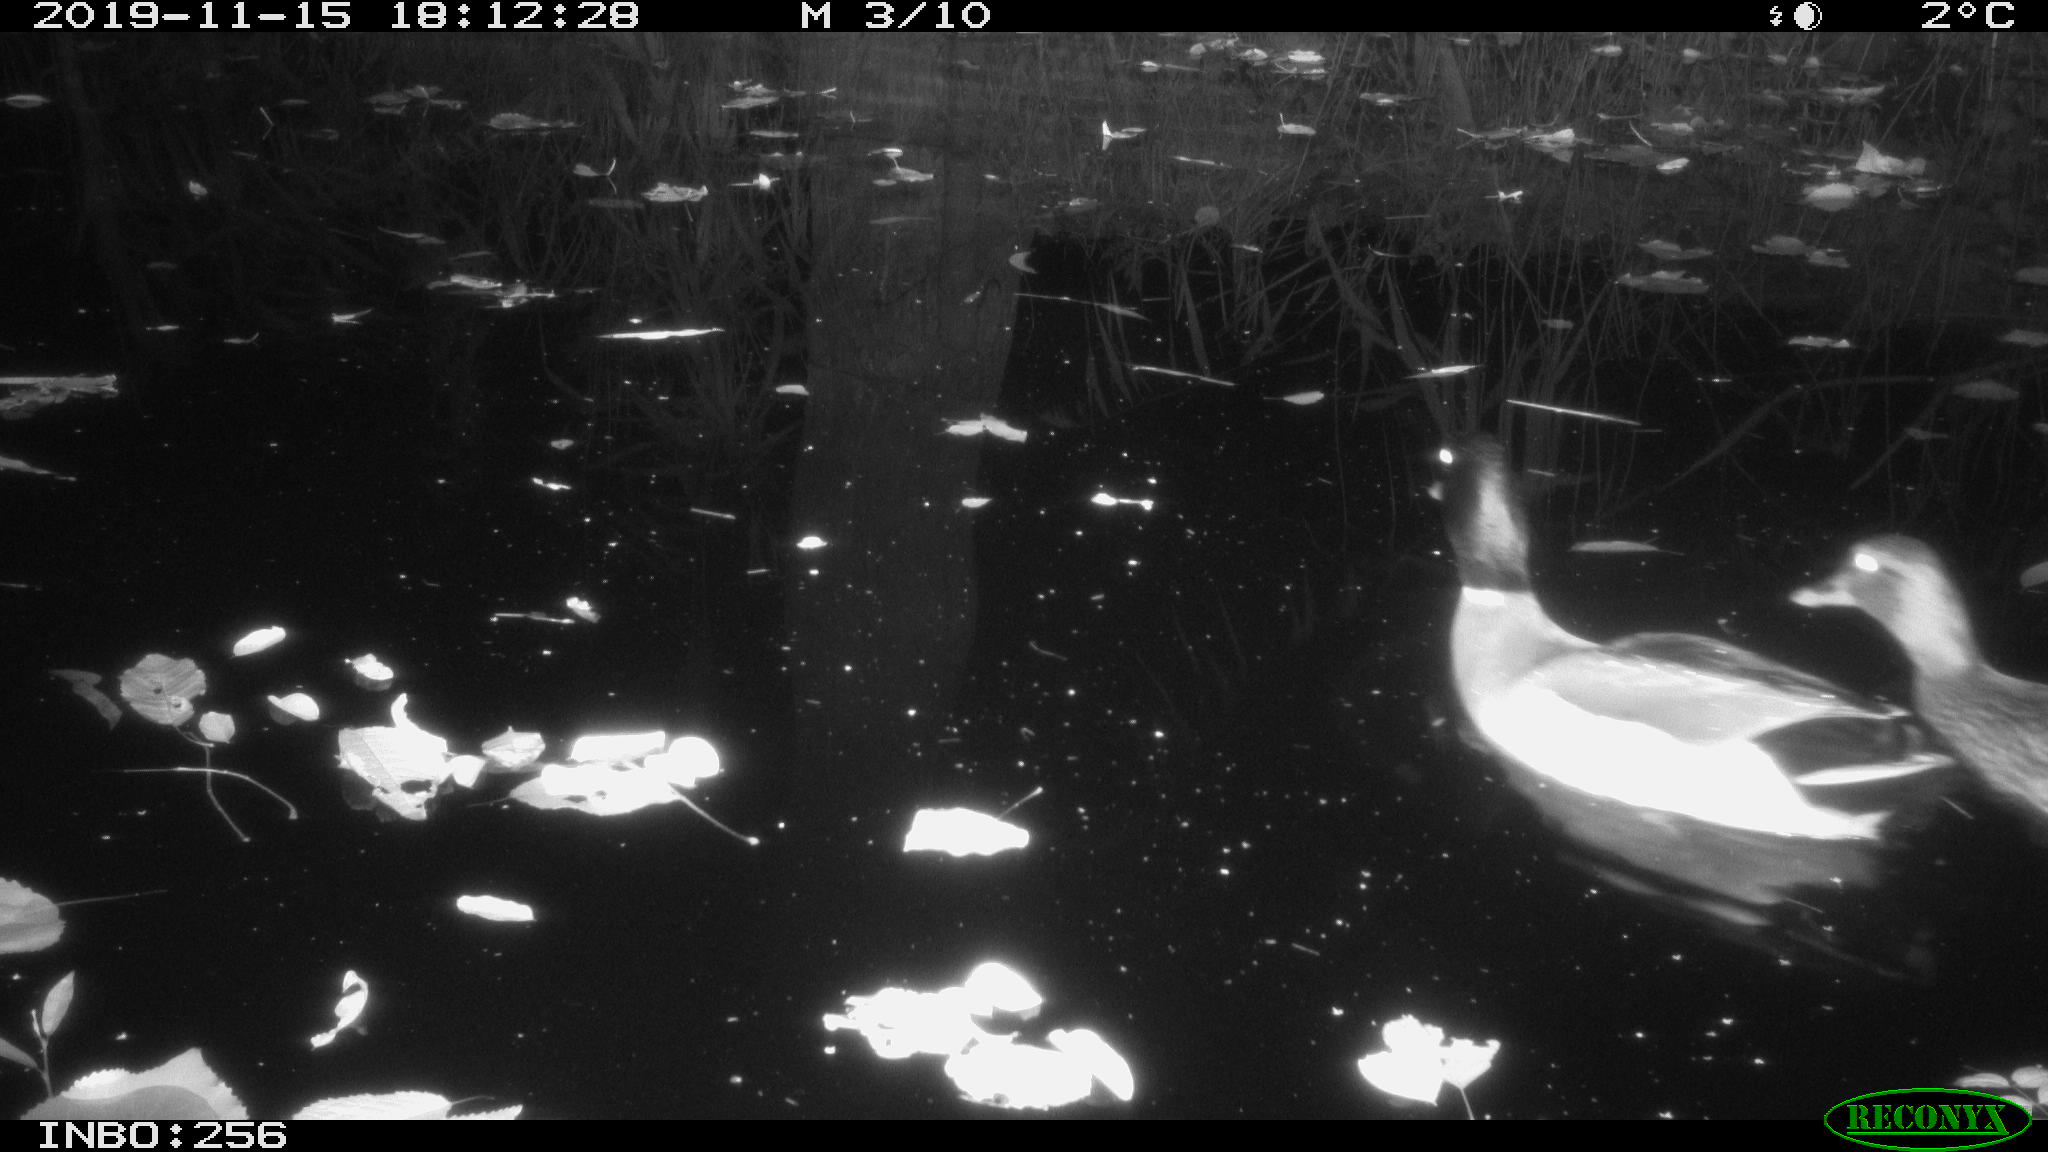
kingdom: Animalia
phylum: Chordata
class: Aves
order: Anseriformes
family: Anatidae
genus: Anas
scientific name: Anas platyrhynchos
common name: Mallard
